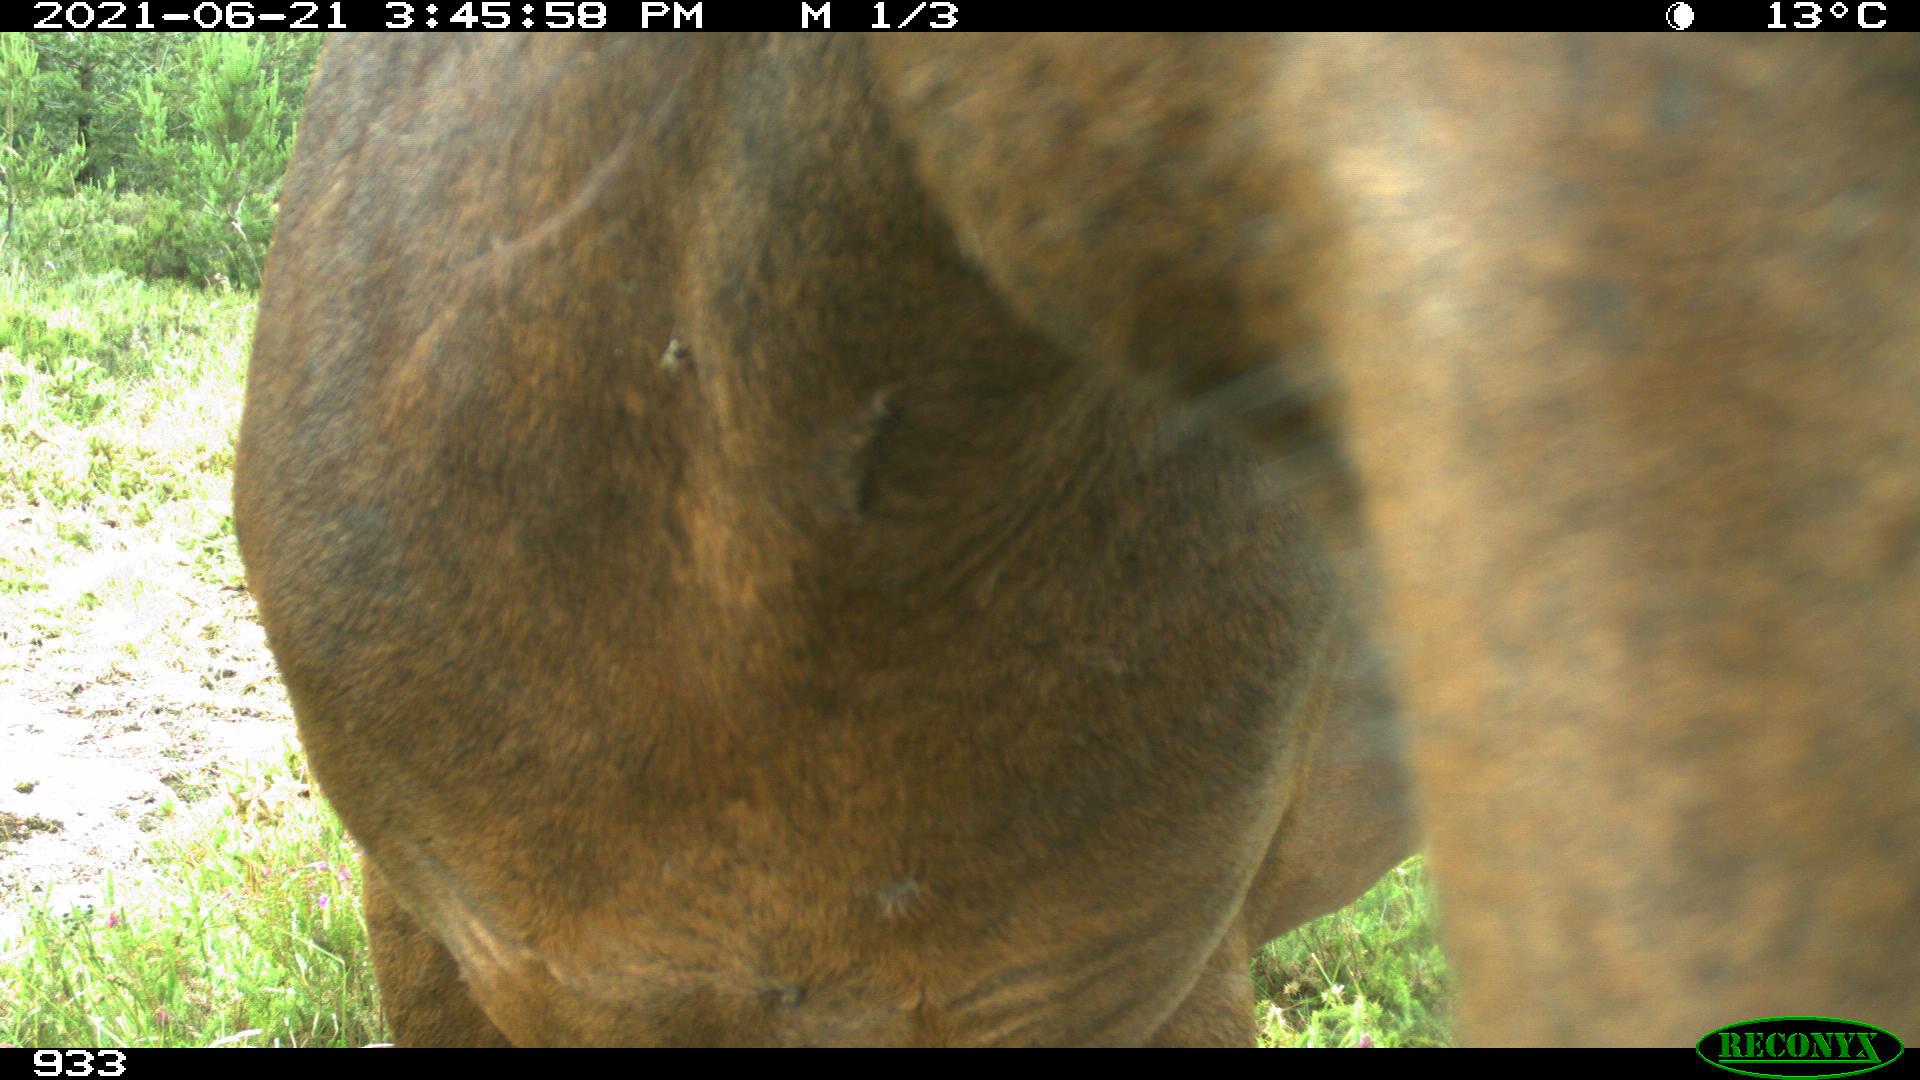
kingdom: Animalia
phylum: Chordata
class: Mammalia
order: Perissodactyla
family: Equidae
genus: Equus
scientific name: Equus caballus
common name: Horse
